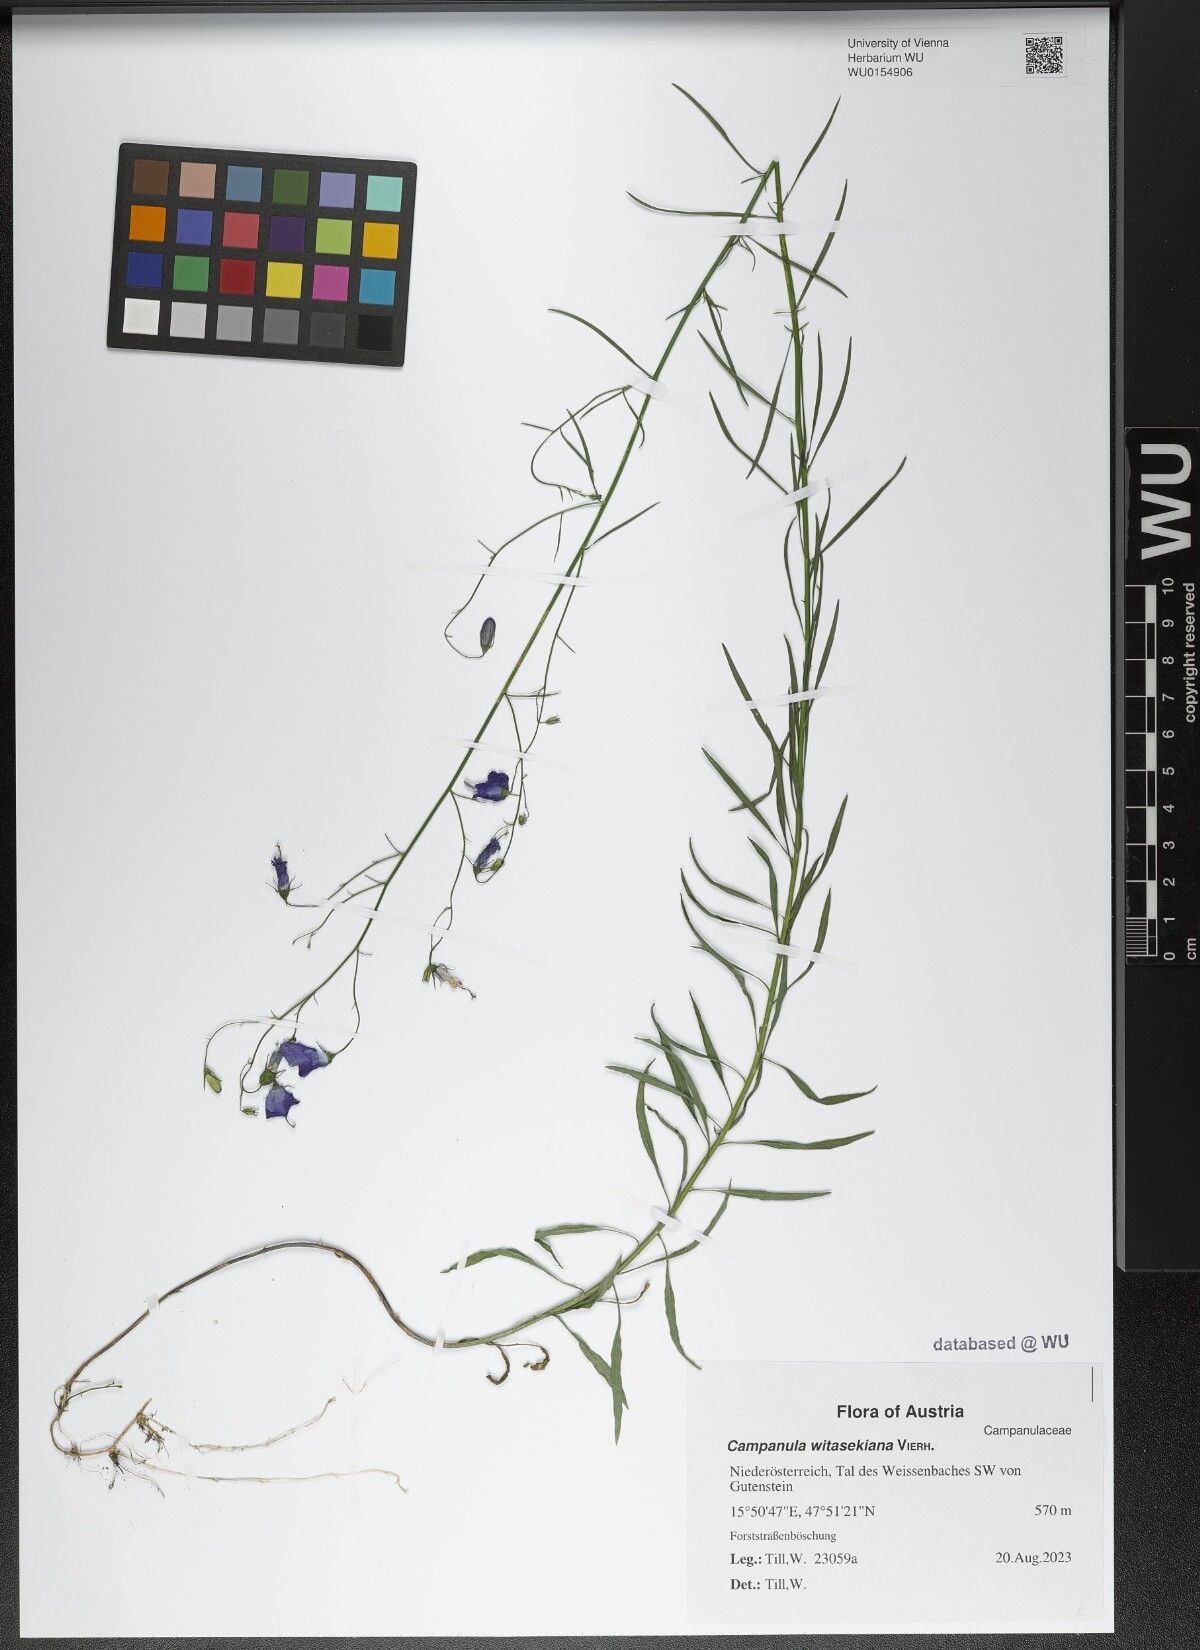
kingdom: Plantae
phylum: Tracheophyta
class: Magnoliopsida
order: Asterales
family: Campanulaceae
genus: Campanula
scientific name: Campanula witasekiana
